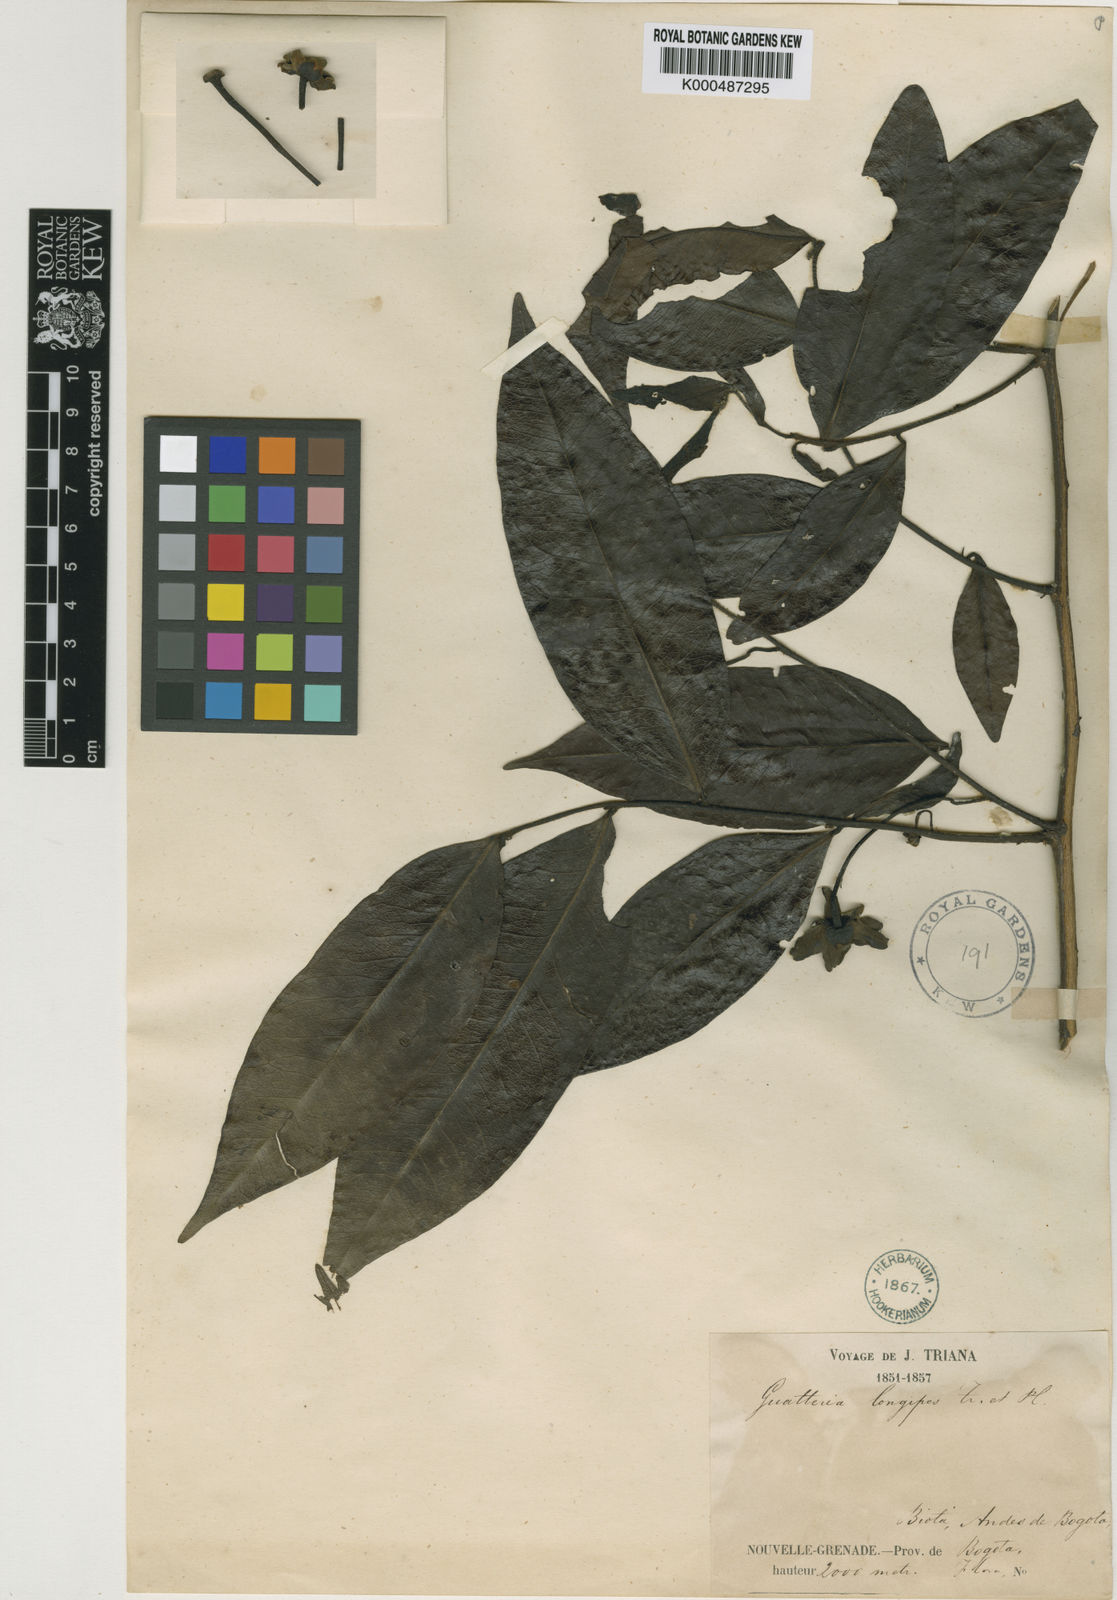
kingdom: Plantae
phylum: Tracheophyta
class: Magnoliopsida
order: Magnoliales
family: Annonaceae
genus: Guatteria
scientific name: Guatteria hirsuta
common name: Laurel
